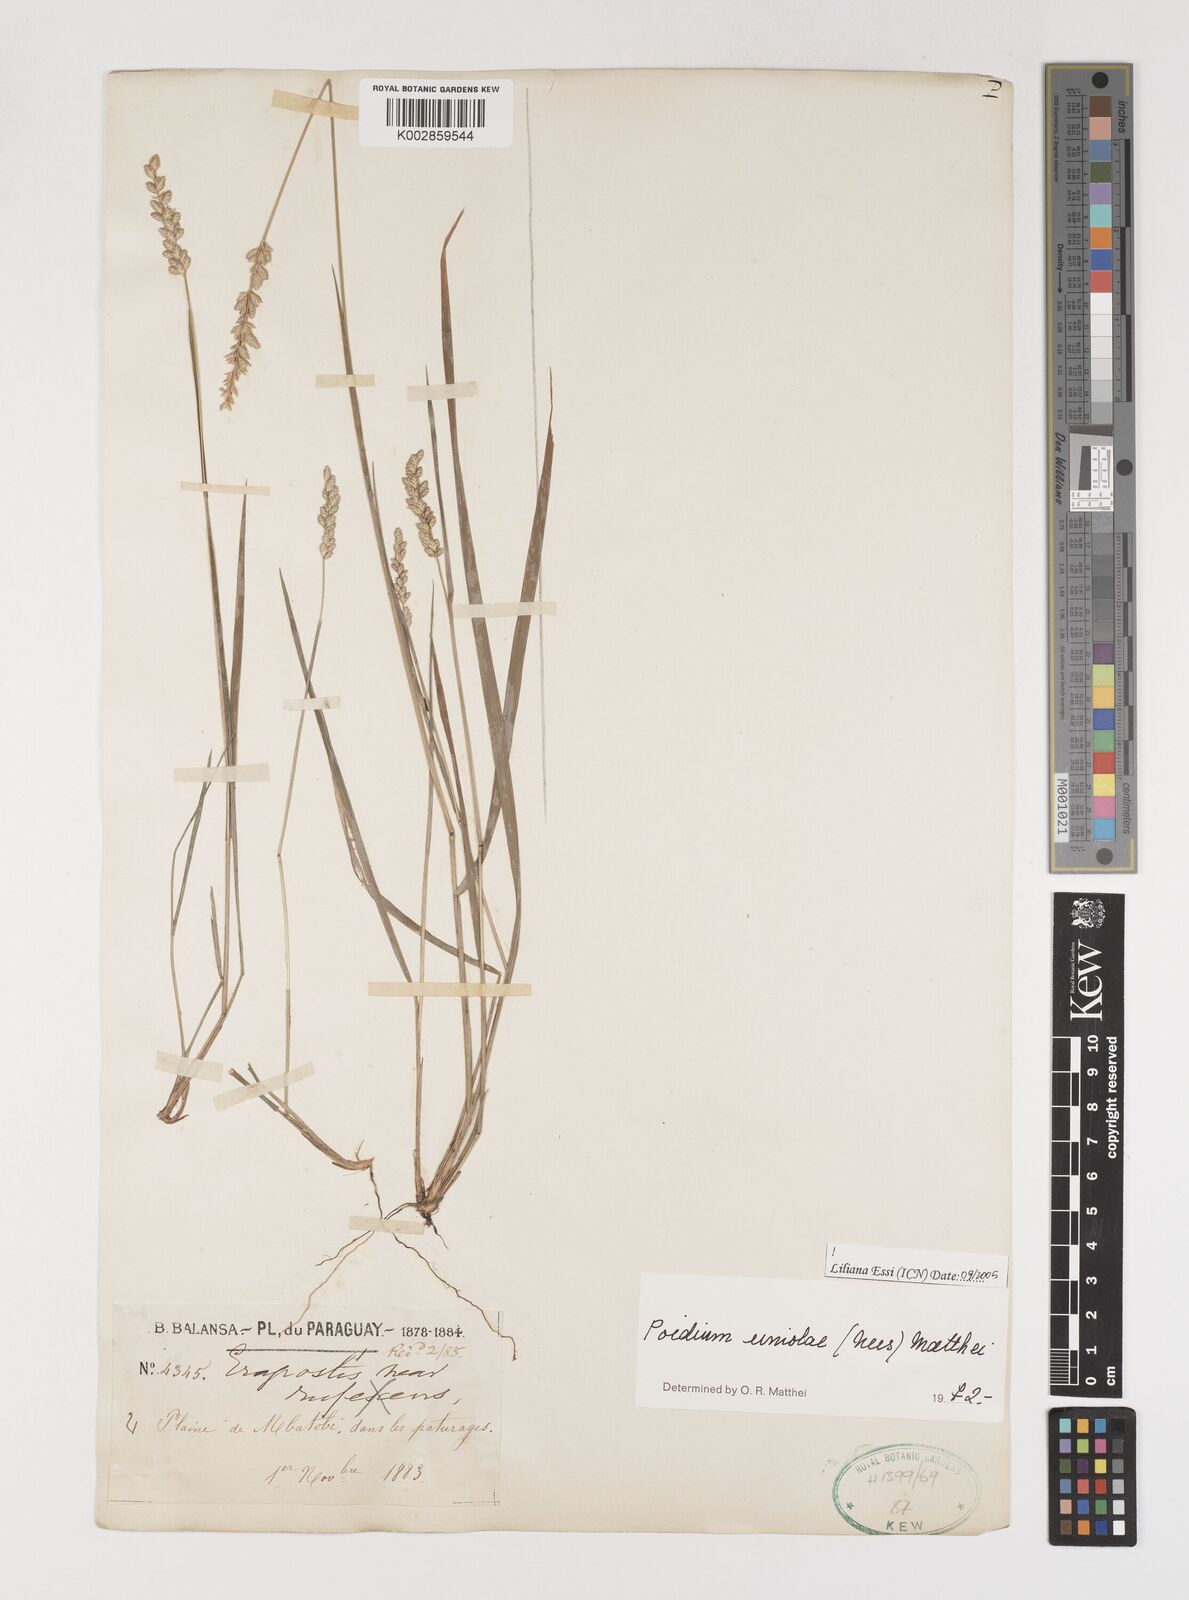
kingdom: Plantae
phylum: Tracheophyta
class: Liliopsida
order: Poales
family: Poaceae
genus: Poidium
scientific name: Poidium uniolae
